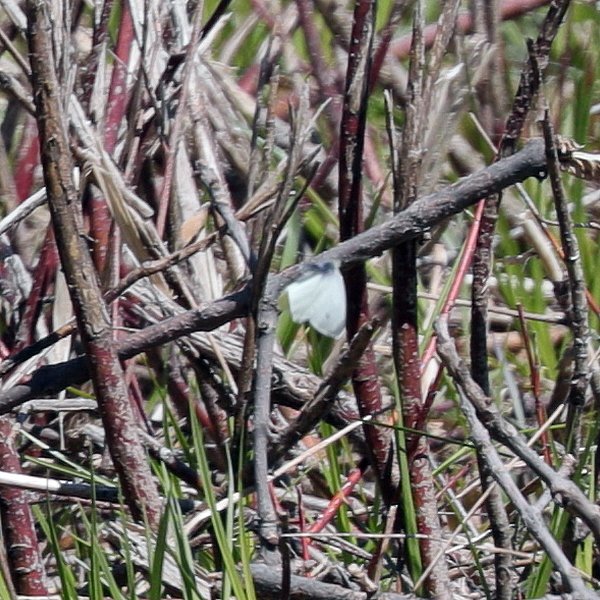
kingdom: Animalia
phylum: Arthropoda
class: Insecta
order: Lepidoptera
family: Pieridae
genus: Pieris
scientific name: Pieris rapae
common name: Cabbage White
